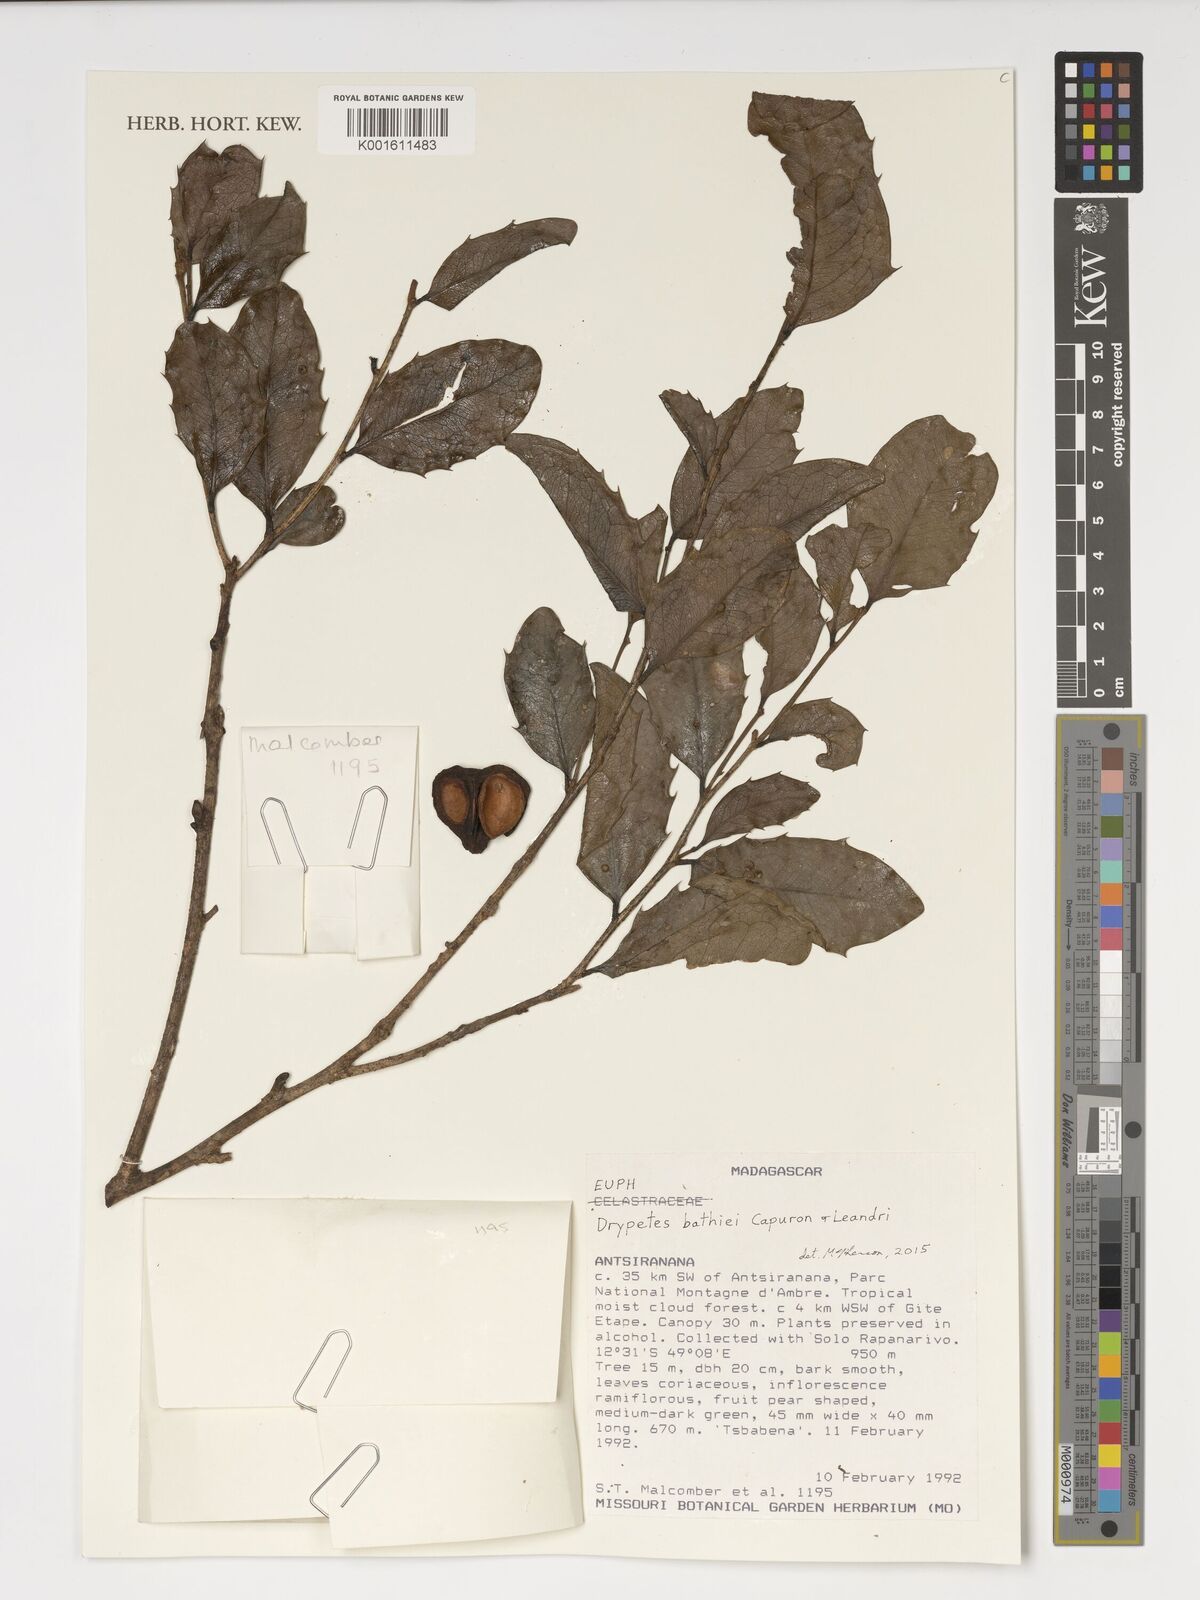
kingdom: Plantae
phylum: Tracheophyta
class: Magnoliopsida
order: Malpighiales
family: Putranjivaceae
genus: Drypetes
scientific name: Drypetes bathiei
